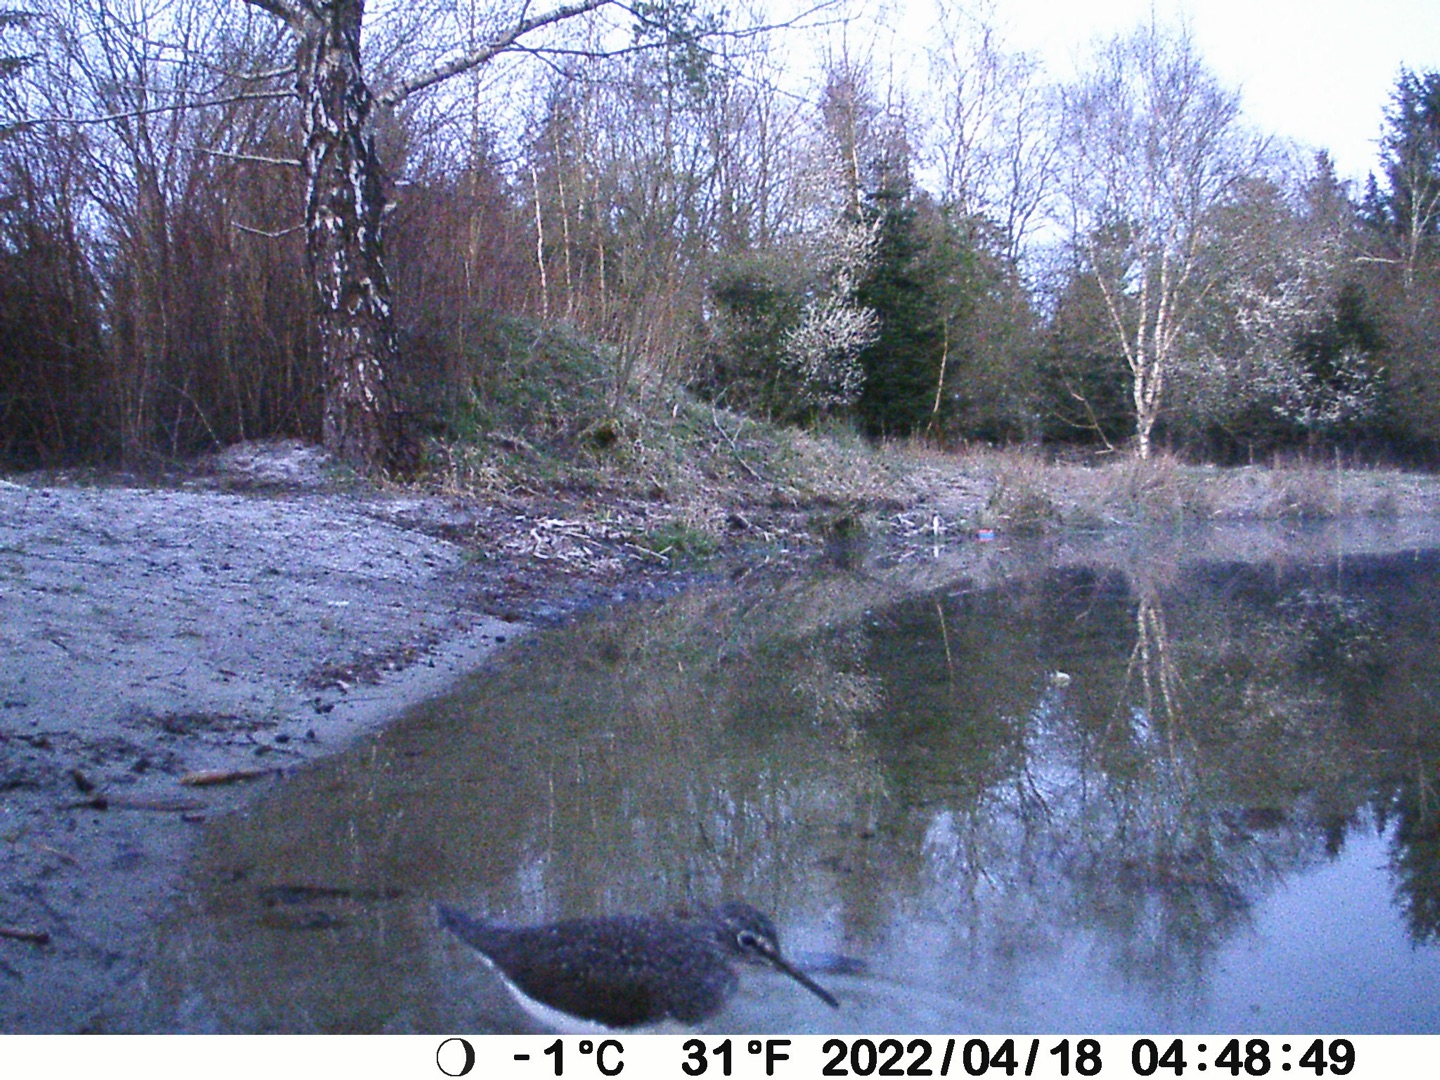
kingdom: Animalia
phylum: Chordata
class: Aves
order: Charadriiformes
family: Scolopacidae
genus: Tringa
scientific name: Tringa ochropus
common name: Svaleklire
